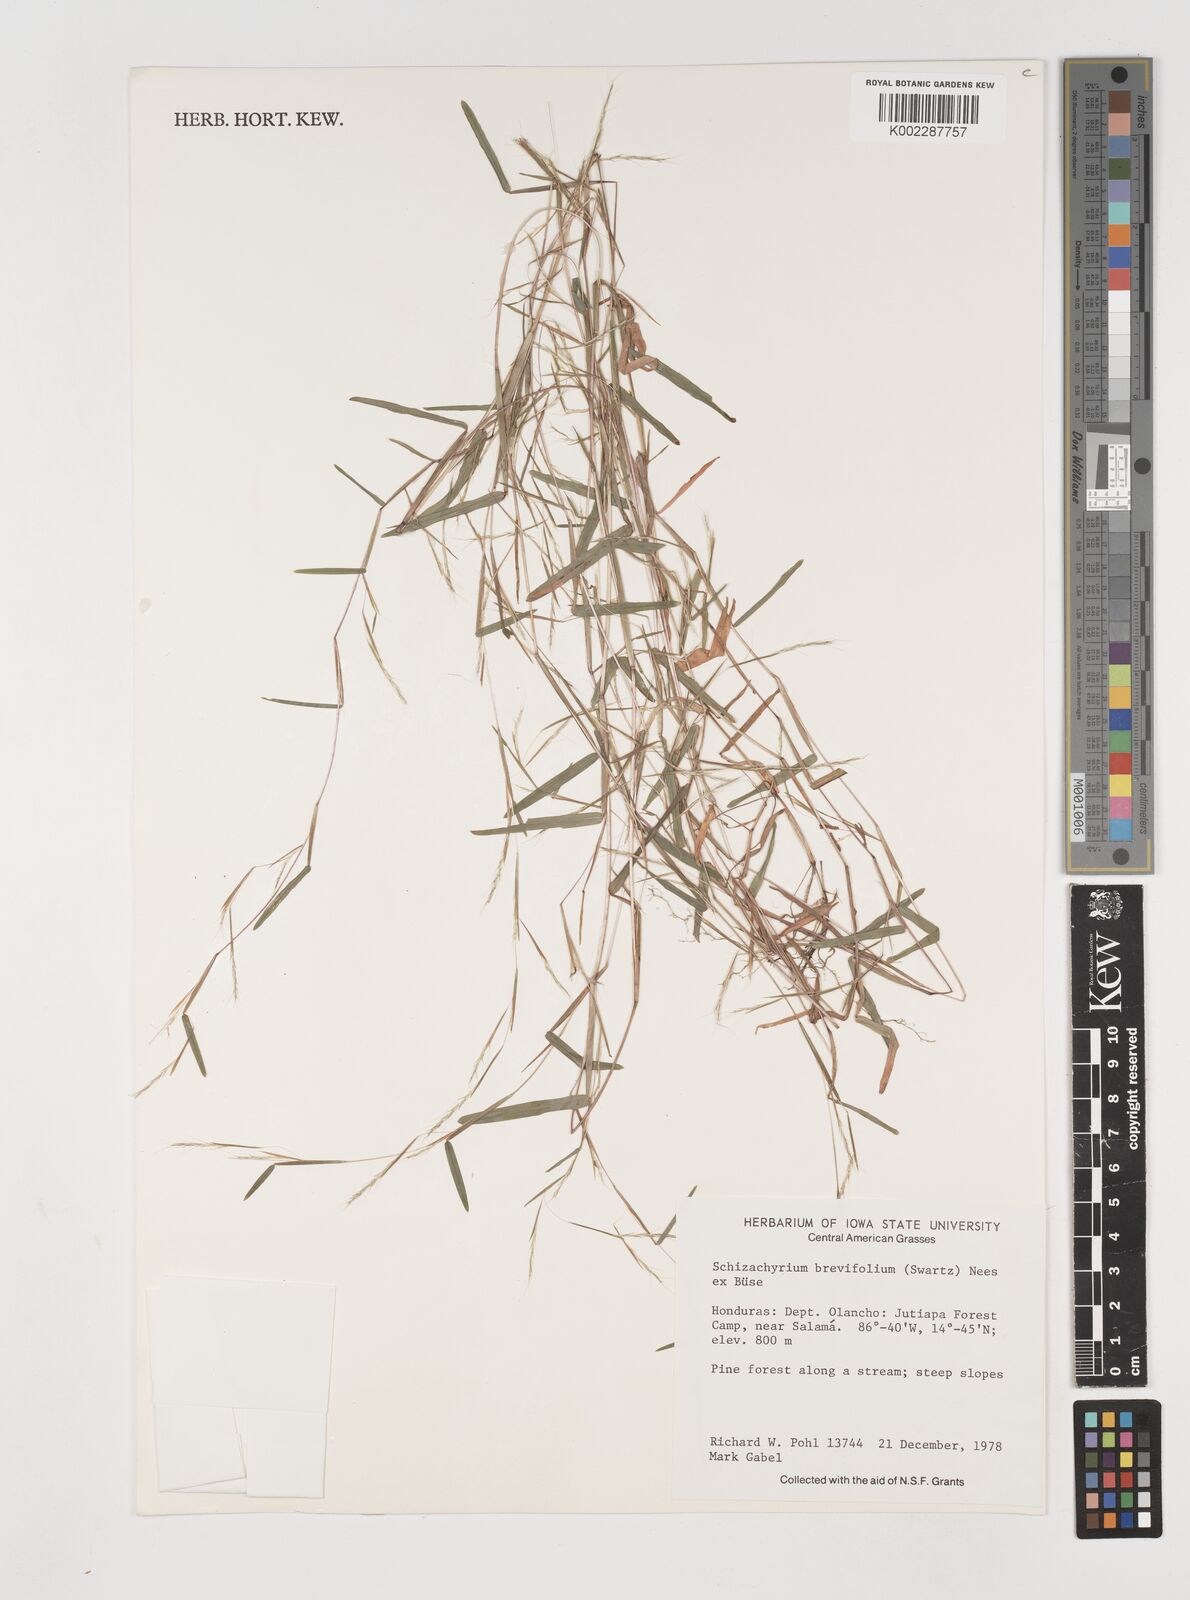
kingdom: Plantae
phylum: Tracheophyta
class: Liliopsida
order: Poales
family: Poaceae
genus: Schizachyrium
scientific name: Schizachyrium brevifolium
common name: Serillo dulce
